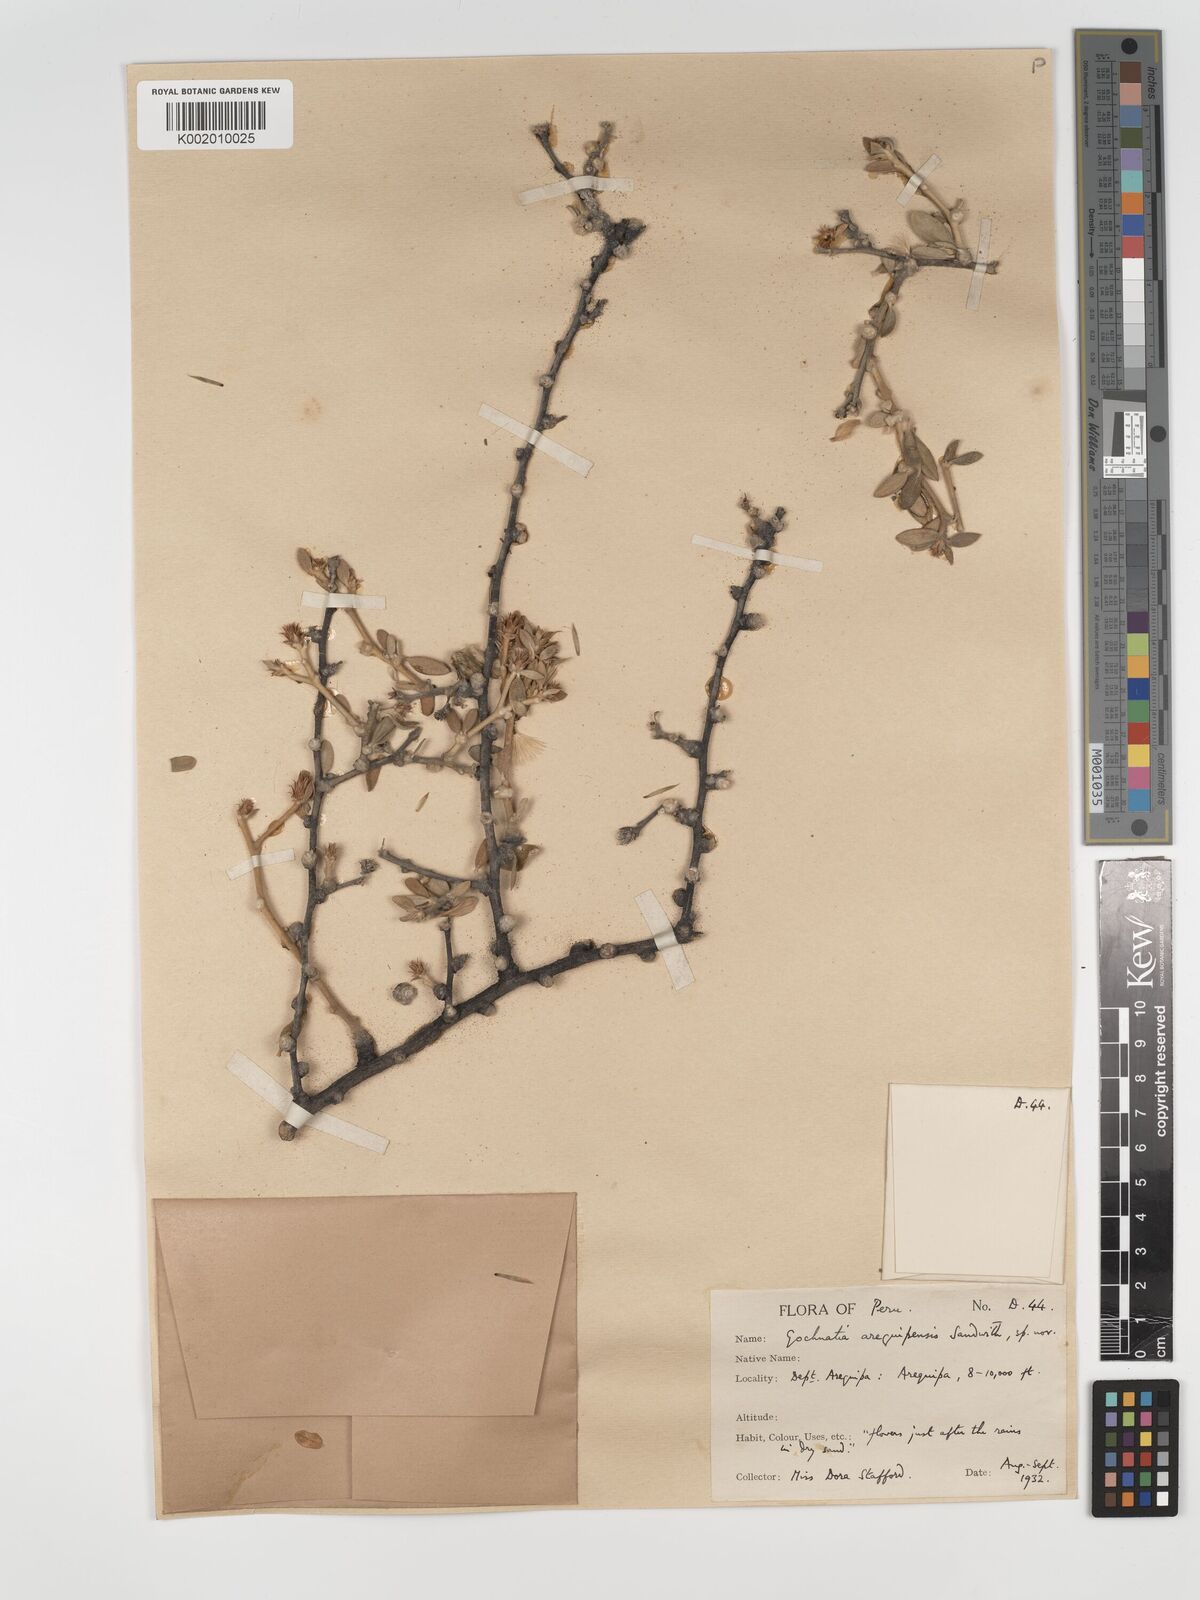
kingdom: Plantae
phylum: Tracheophyta
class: Magnoliopsida
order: Asterales
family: Asteraceae
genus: Gochnatia
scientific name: Gochnatia arequipensis
